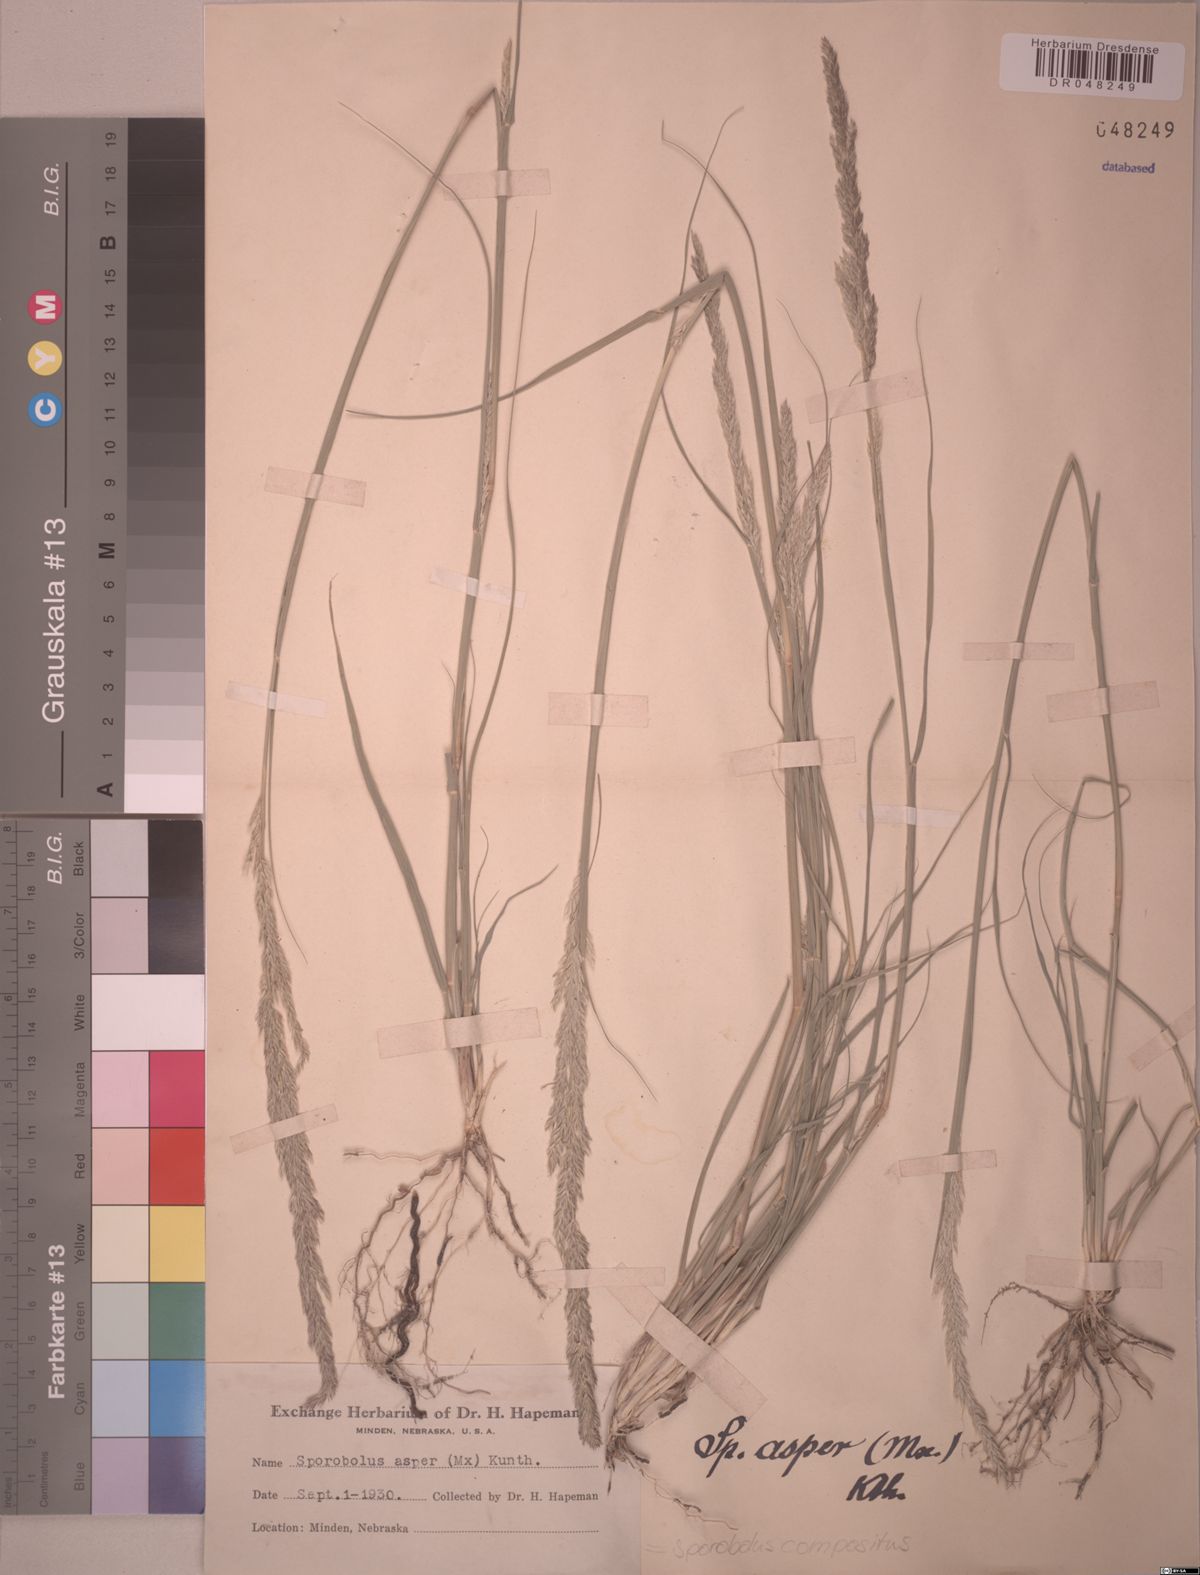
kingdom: Plantae
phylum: Tracheophyta
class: Liliopsida
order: Poales
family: Poaceae
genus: Sporobolus
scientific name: Sporobolus compositus
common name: Rough dropseed
